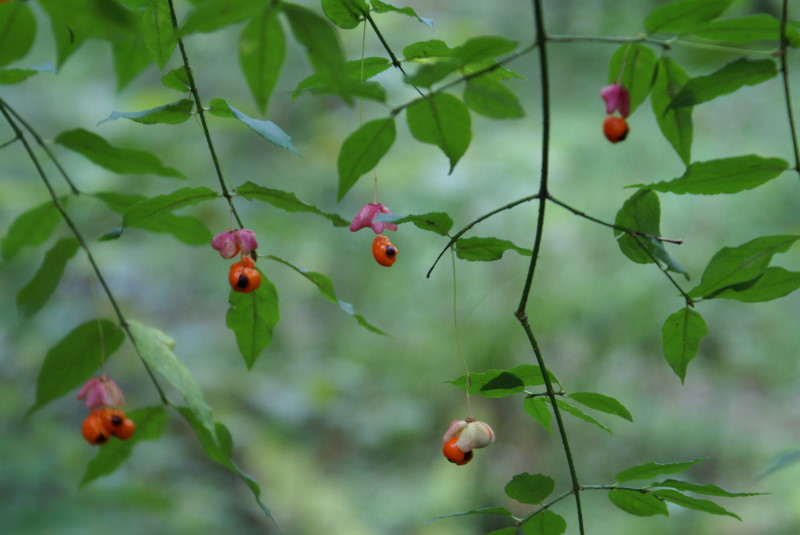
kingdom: Plantae
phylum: Tracheophyta
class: Magnoliopsida
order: Celastrales
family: Celastraceae
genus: Euonymus
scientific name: Euonymus verrucosus
